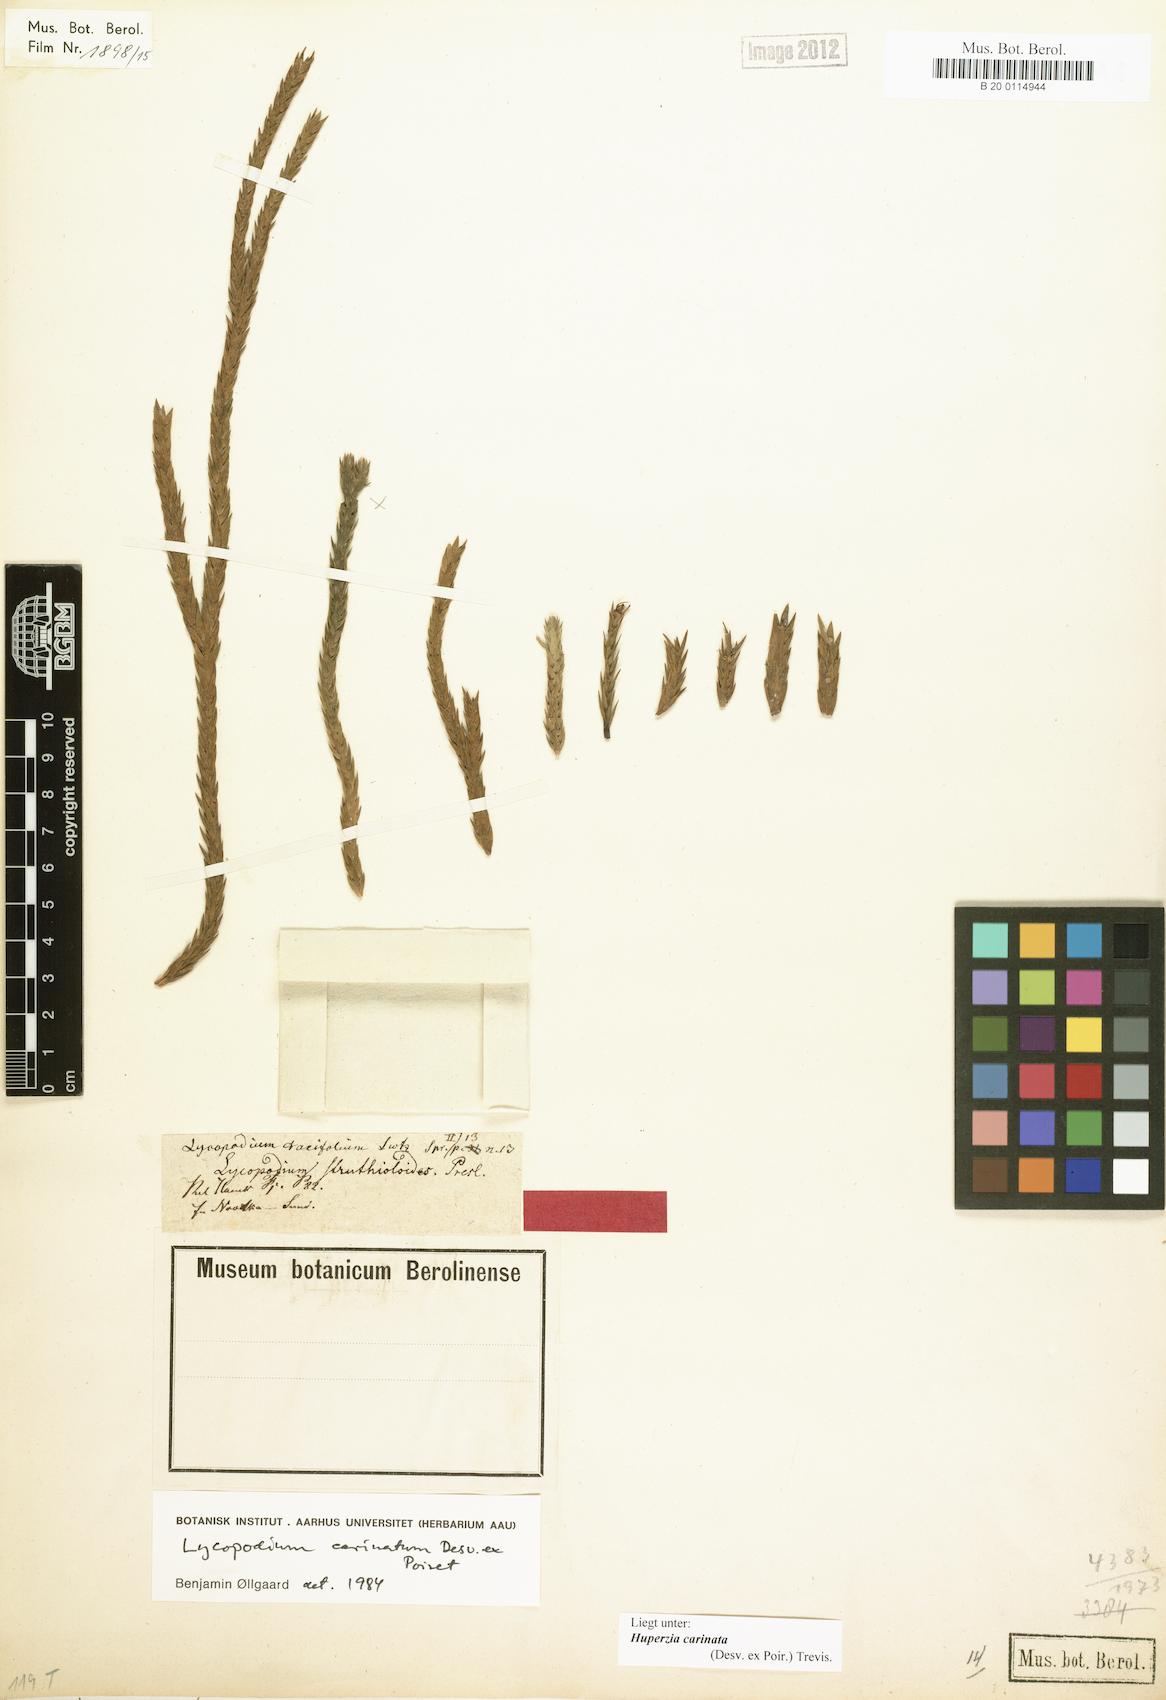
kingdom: Plantae
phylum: Tracheophyta
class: Lycopodiopsida
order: Lycopodiales
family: Lycopodiaceae
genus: Phlegmariurus
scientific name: Phlegmariurus carinatus
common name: Keeled tassel-fern
